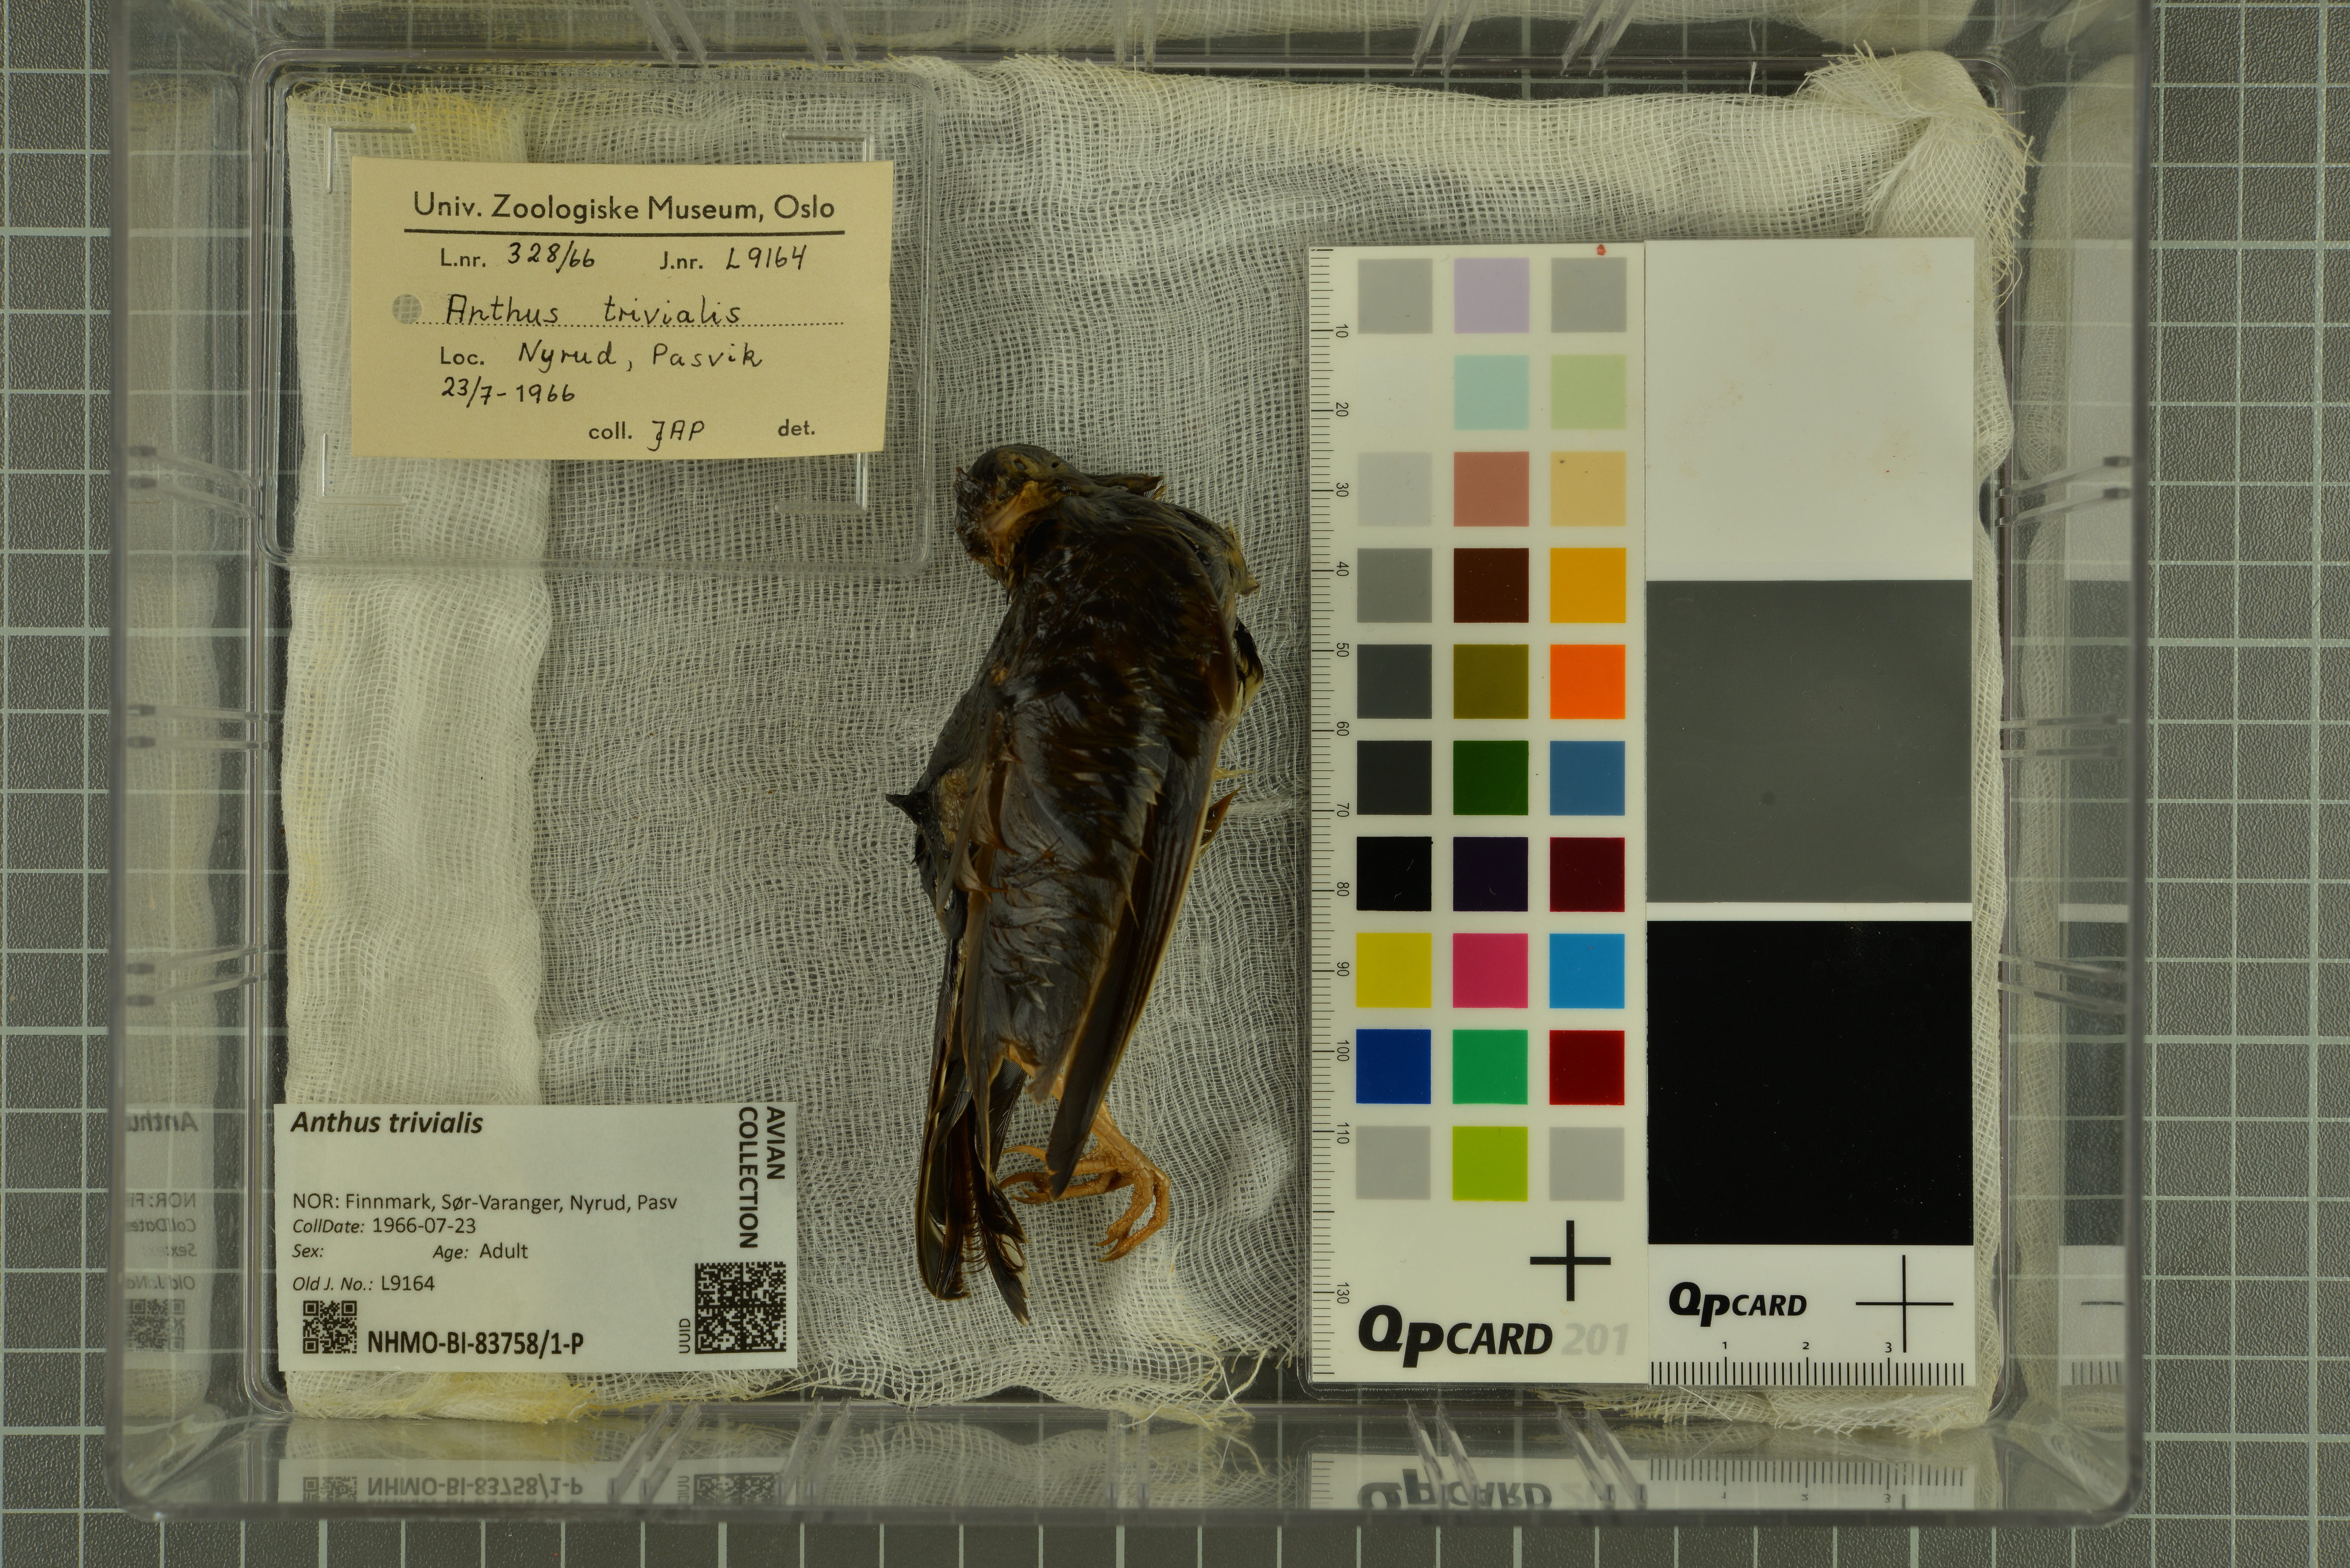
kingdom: Animalia
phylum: Chordata
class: Aves
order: Passeriformes
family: Motacillidae
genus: Anthus
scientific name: Anthus trivialis
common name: Tree pipit
